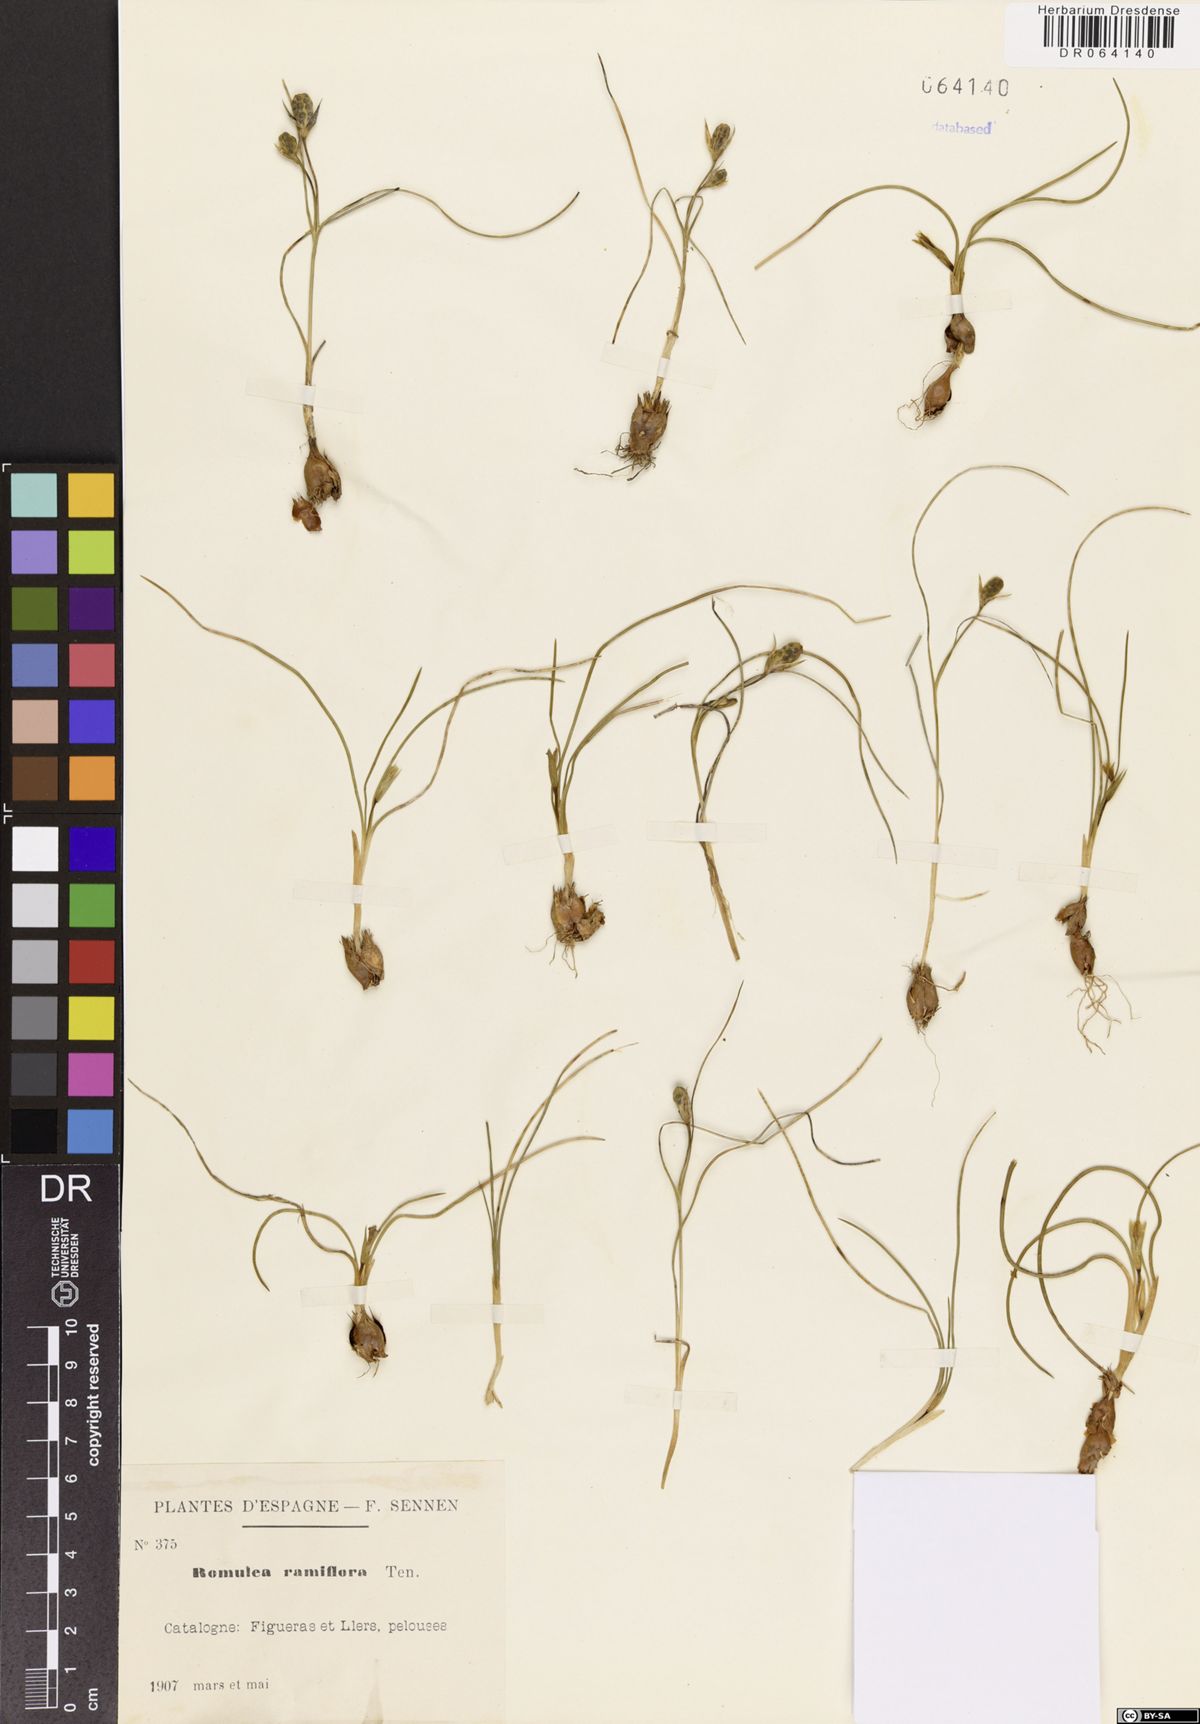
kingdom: Plantae
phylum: Tracheophyta
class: Liliopsida
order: Asparagales
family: Iridaceae
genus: Romulea
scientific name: Romulea ramiflora
